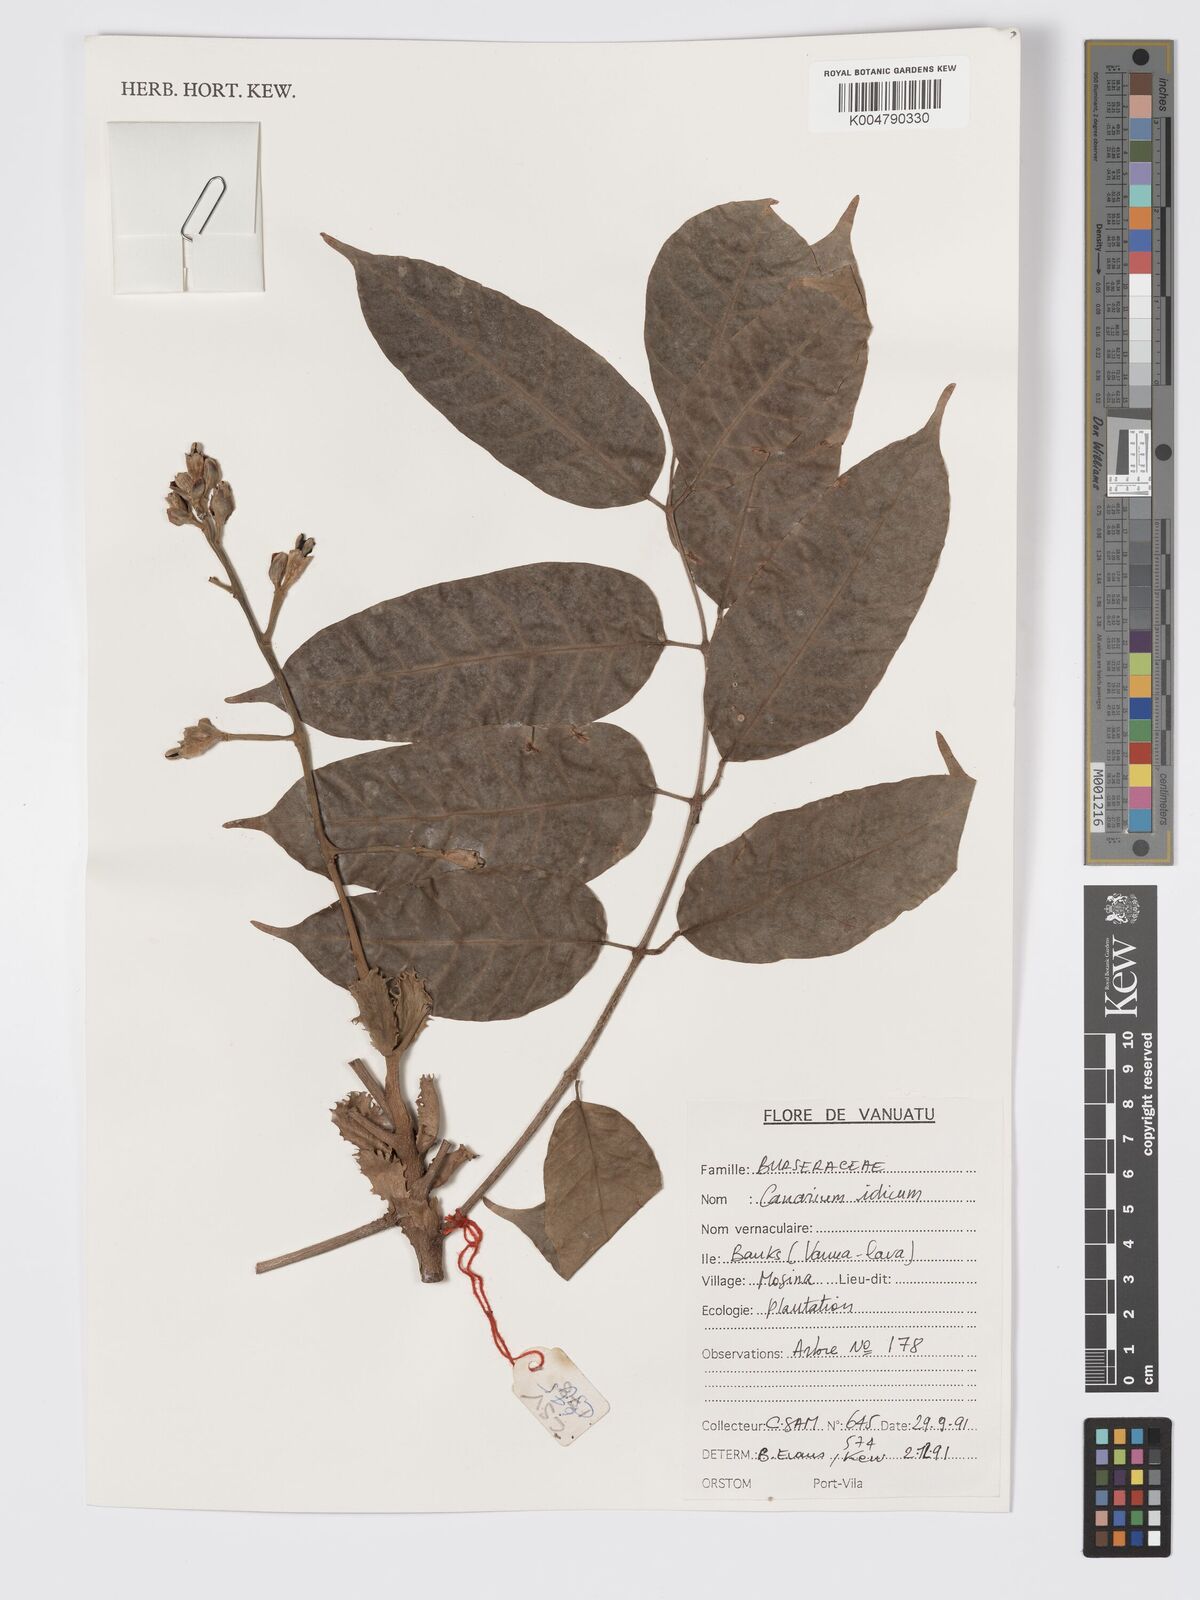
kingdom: Plantae
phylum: Tracheophyta
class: Magnoliopsida
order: Sapindales
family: Burseraceae
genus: Canarium
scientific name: Canarium indicum
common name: Canarium-nut
